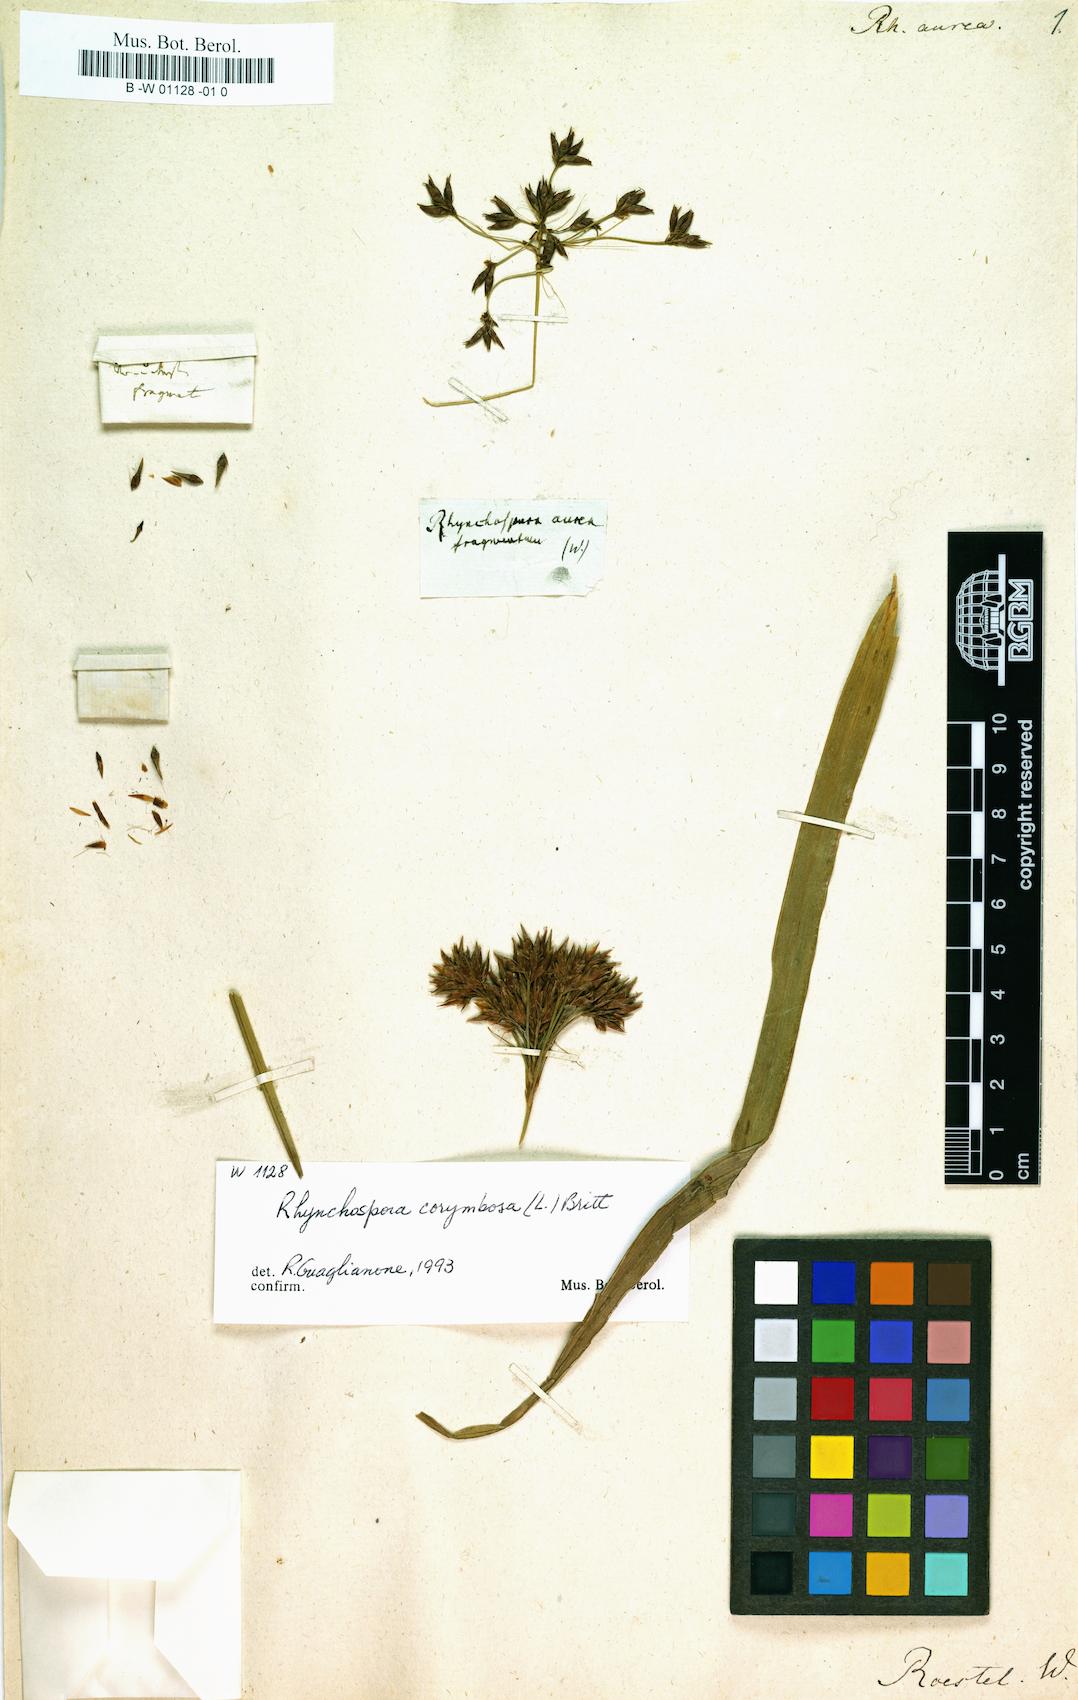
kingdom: Plantae
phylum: Tracheophyta
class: Liliopsida
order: Poales
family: Cyperaceae
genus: Rhynchospora
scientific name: Rhynchospora corymbosa
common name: Golden beak sedge
